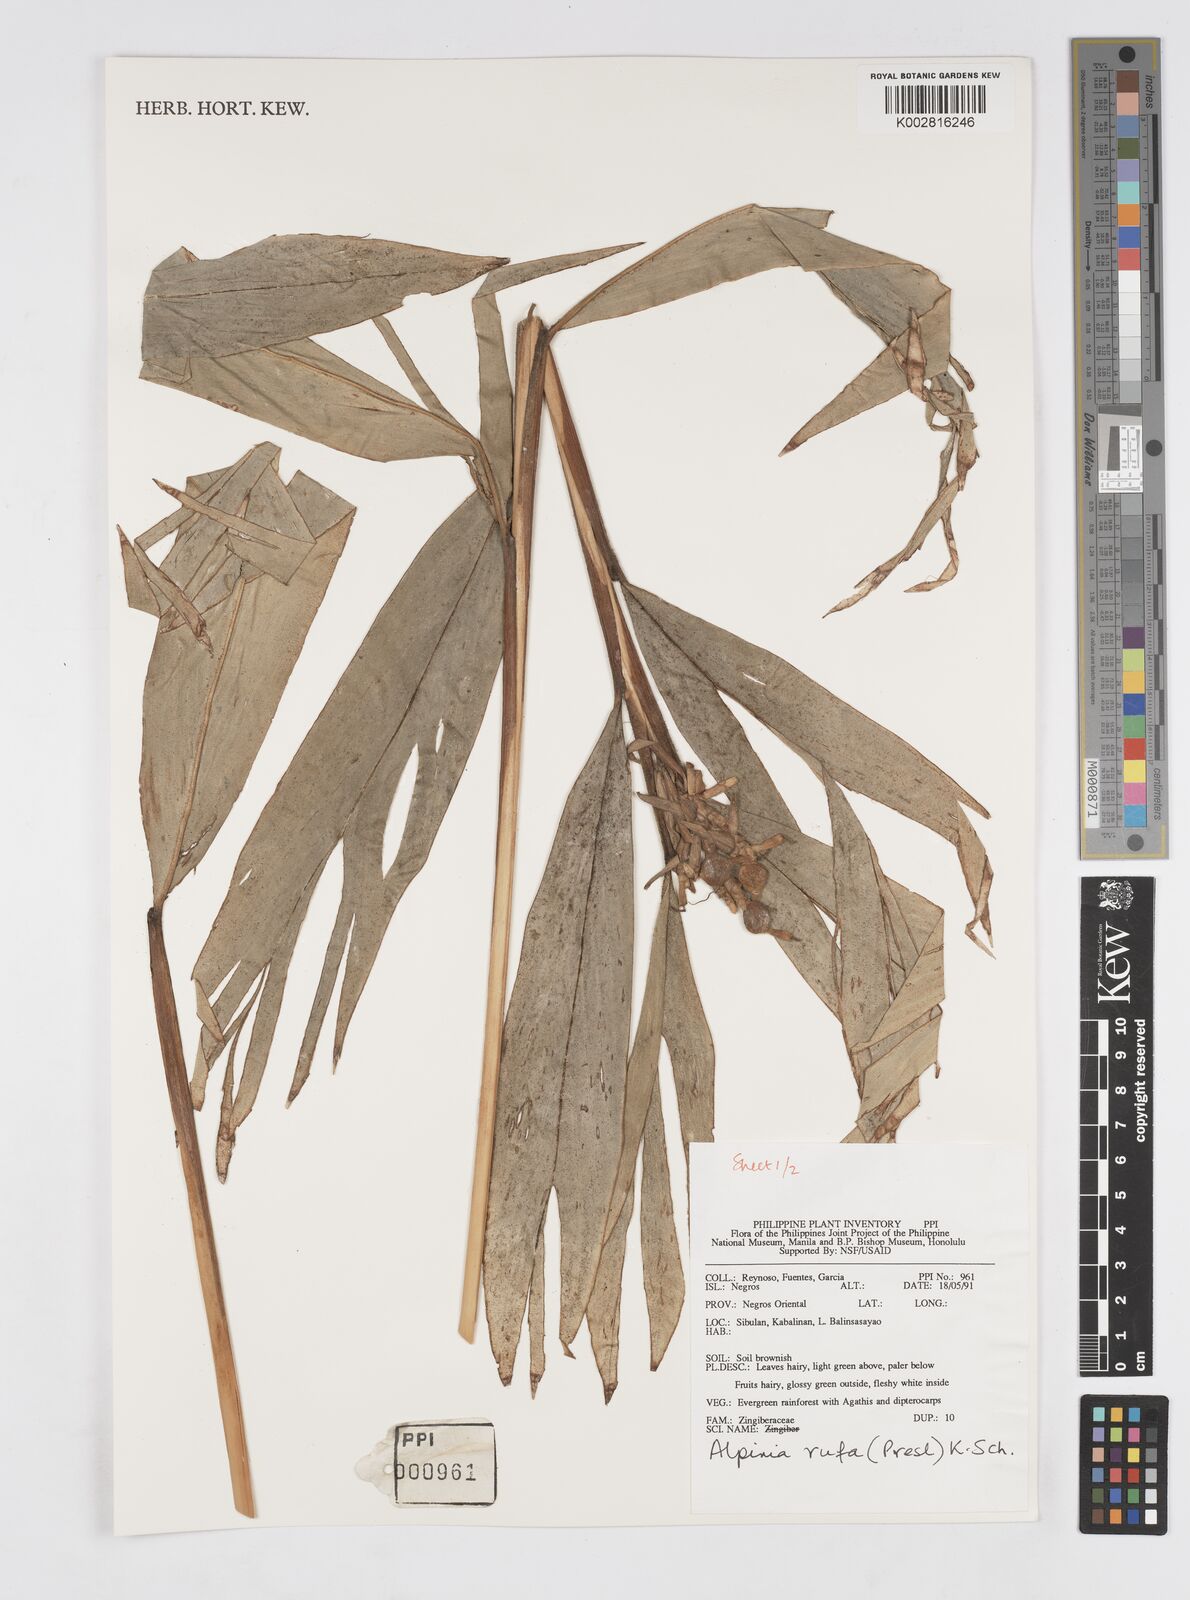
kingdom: Plantae
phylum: Tracheophyta
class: Liliopsida
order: Zingiberales
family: Zingiberaceae
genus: Alpinia
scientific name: Alpinia rufa
